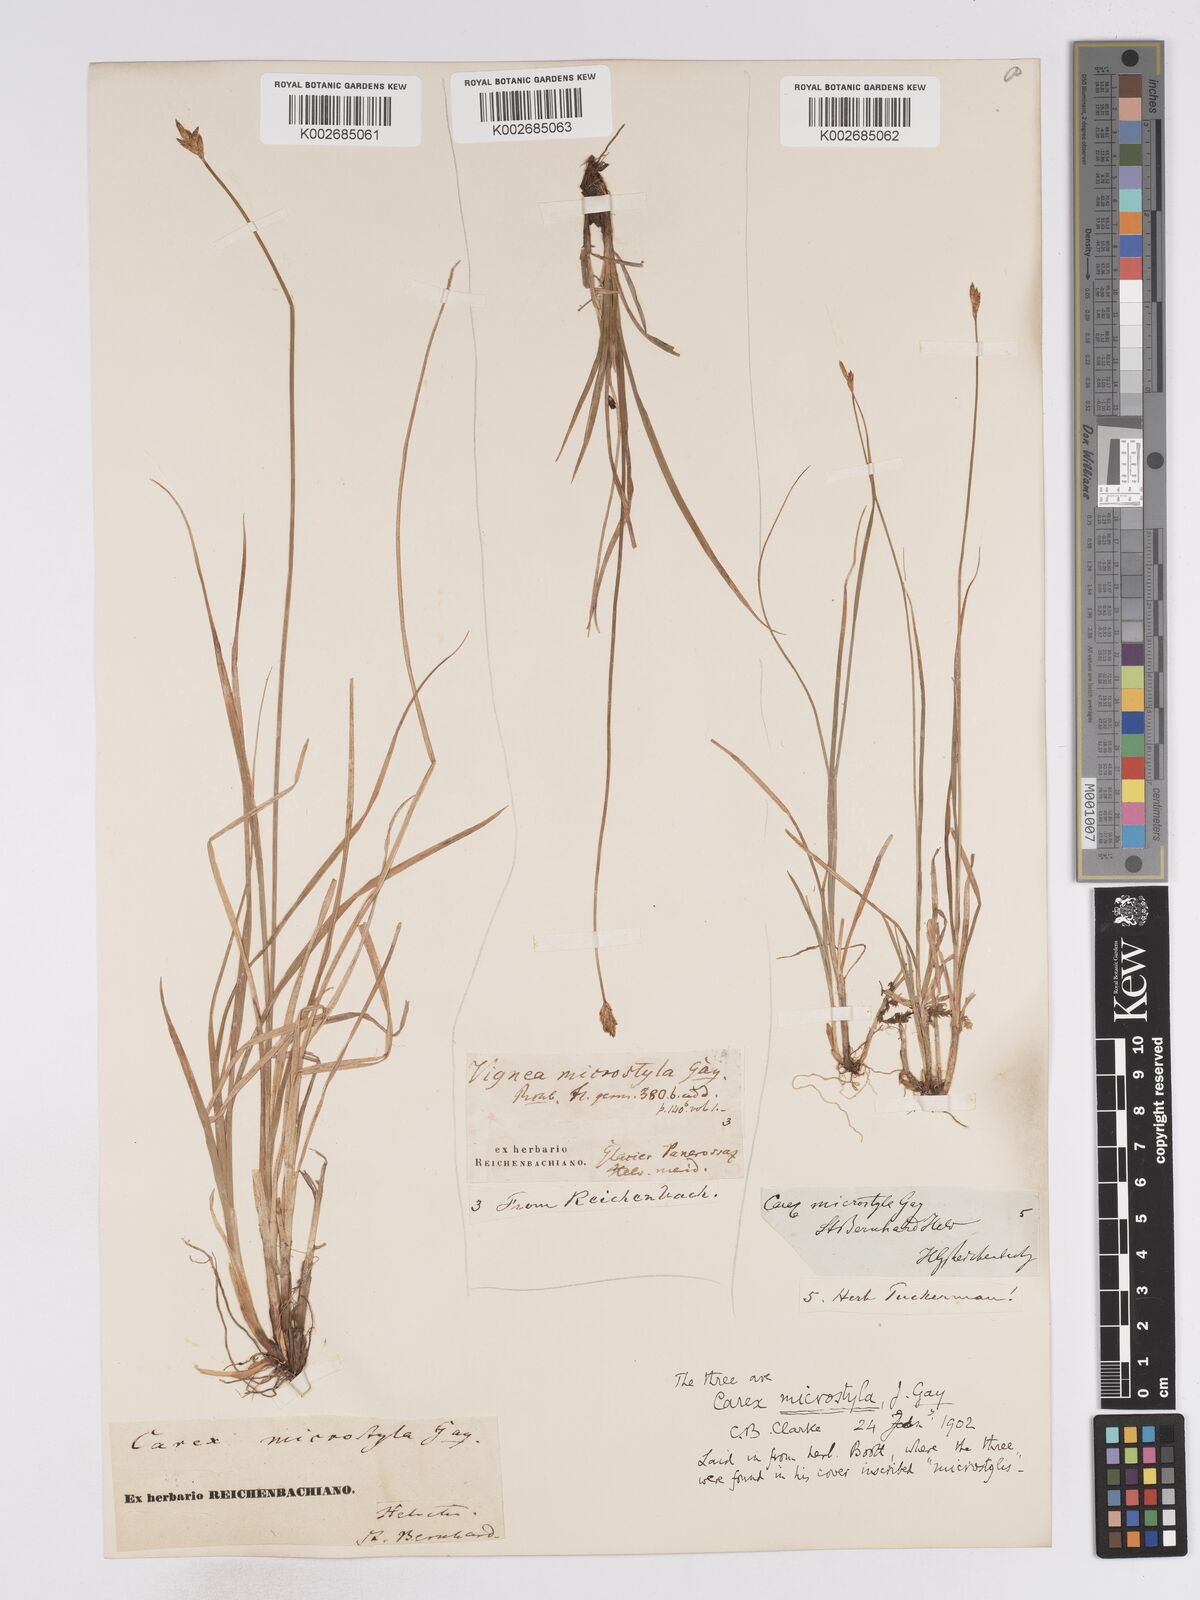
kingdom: Plantae
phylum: Tracheophyta
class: Liliopsida
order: Poales
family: Cyperaceae
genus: Carex
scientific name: Carex microstyla
